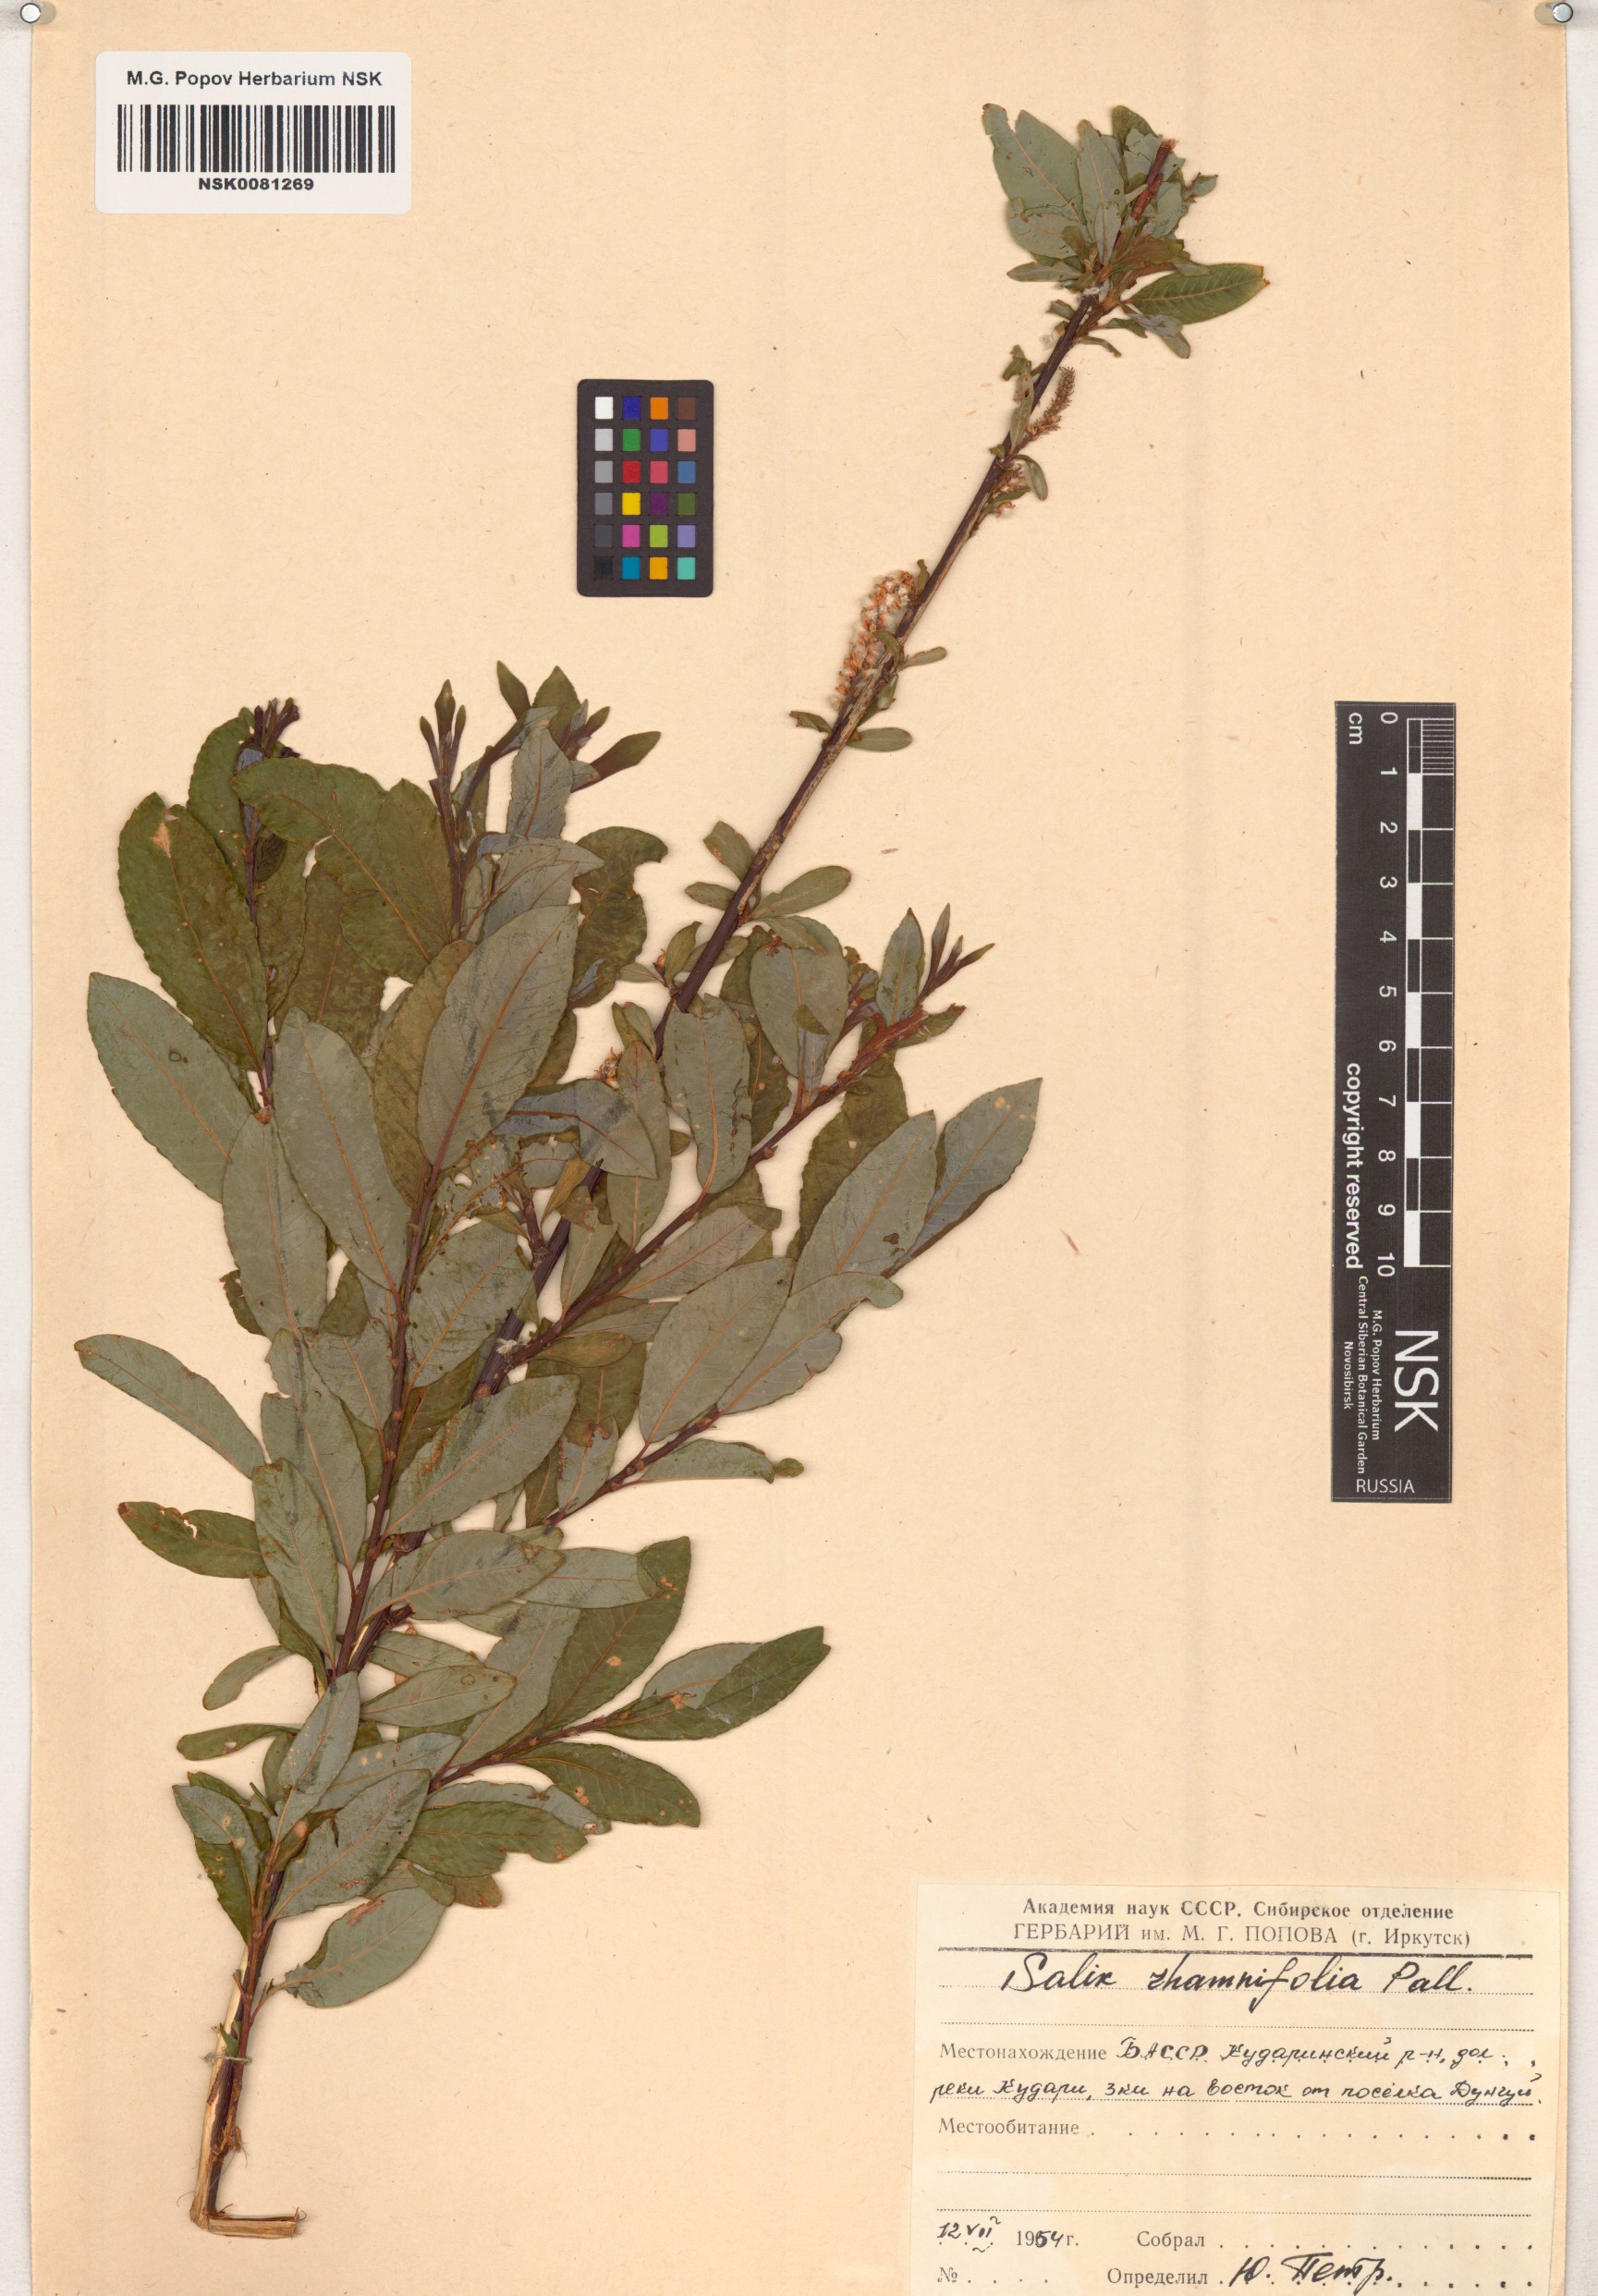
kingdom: Plantae
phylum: Tracheophyta
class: Magnoliopsida
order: Malpighiales
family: Salicaceae
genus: Salix
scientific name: Salix rhamnifolia
